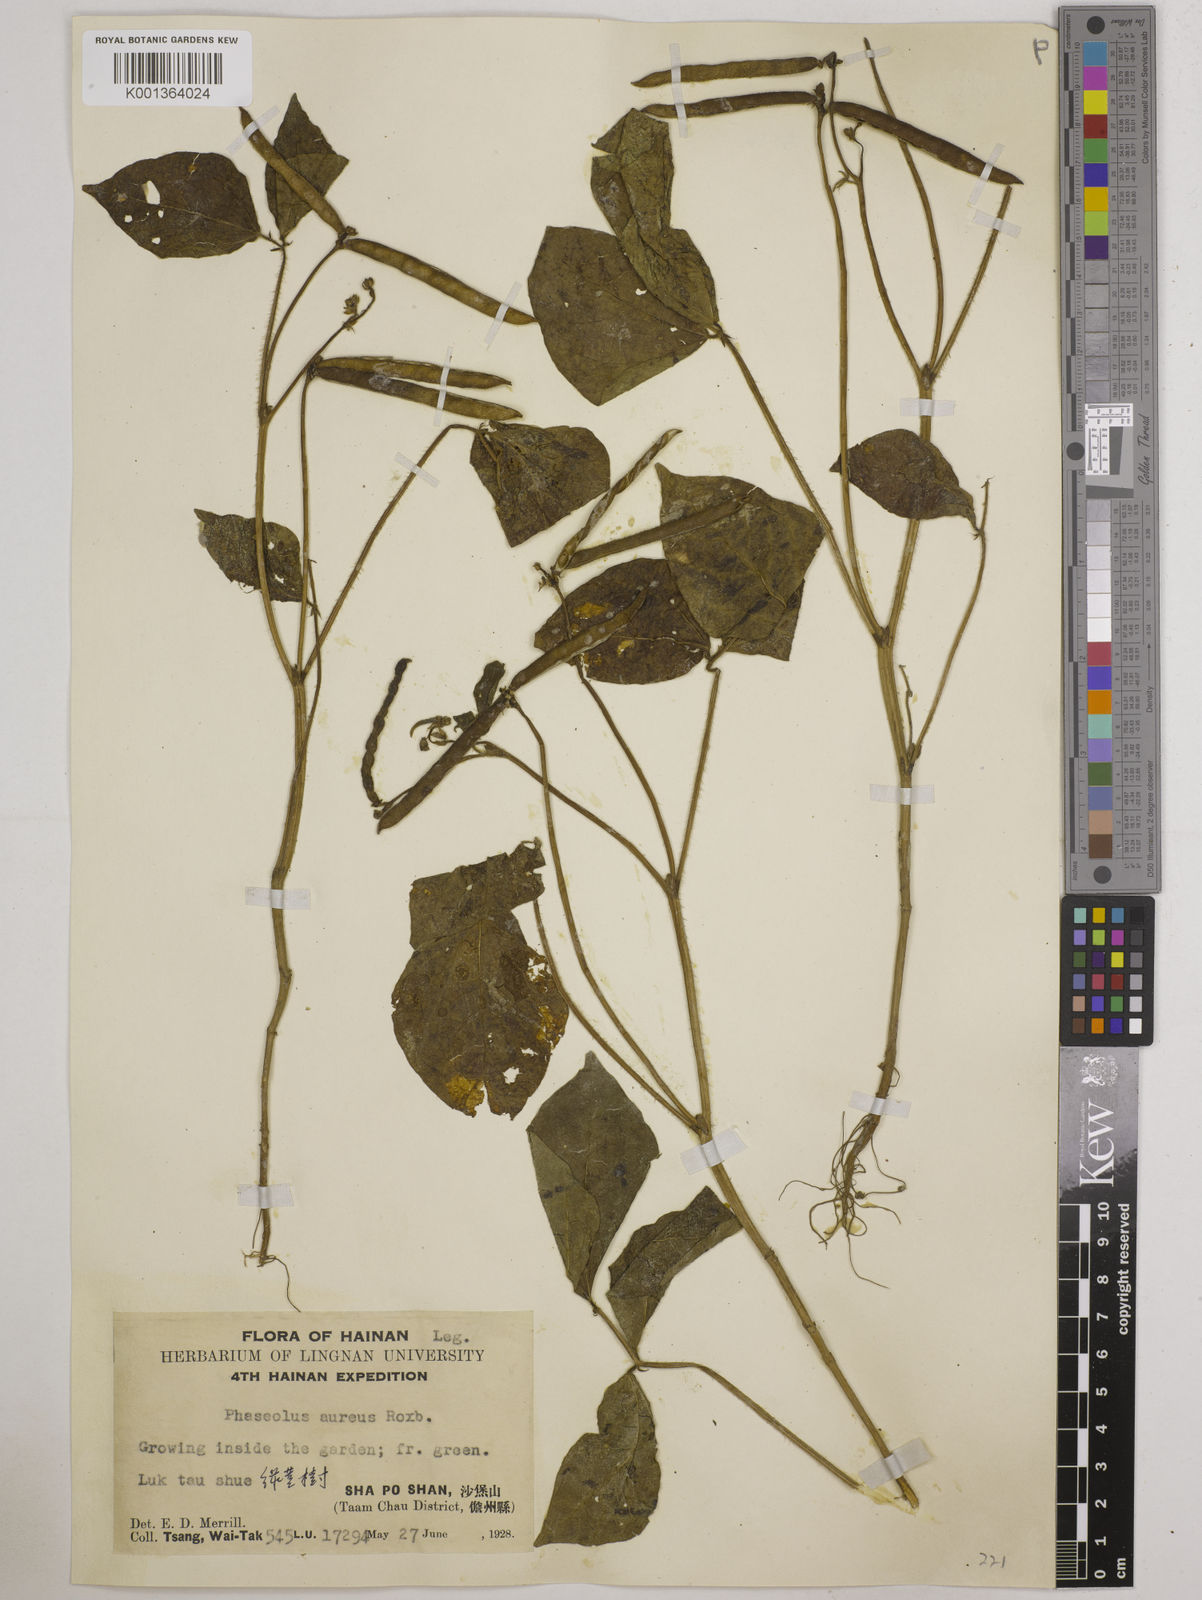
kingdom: Plantae
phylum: Tracheophyta
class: Magnoliopsida
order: Fabales
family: Fabaceae
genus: Vigna
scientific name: Vigna radiata
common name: Mung-bean
